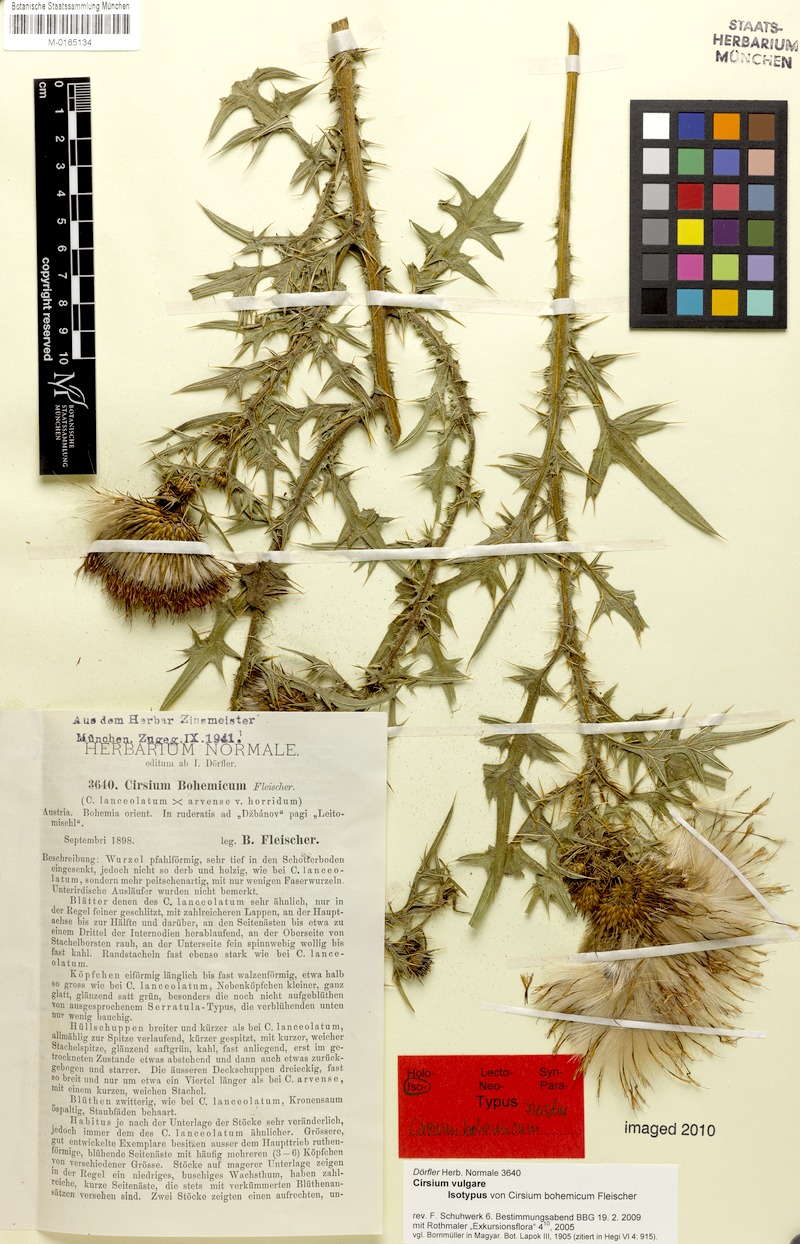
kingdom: Plantae
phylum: Tracheophyta
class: Magnoliopsida
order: Asterales
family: Asteraceae
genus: Cirsium
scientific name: Cirsium vulgare
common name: Bull thistle
